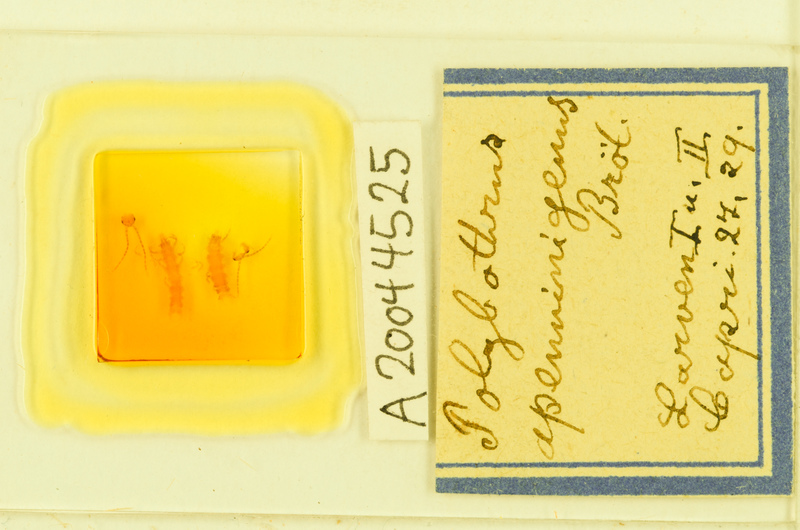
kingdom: Animalia
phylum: Arthropoda
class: Chilopoda
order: Lithobiomorpha
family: Lithobiidae
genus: Polybothrus
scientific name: Polybothrus
